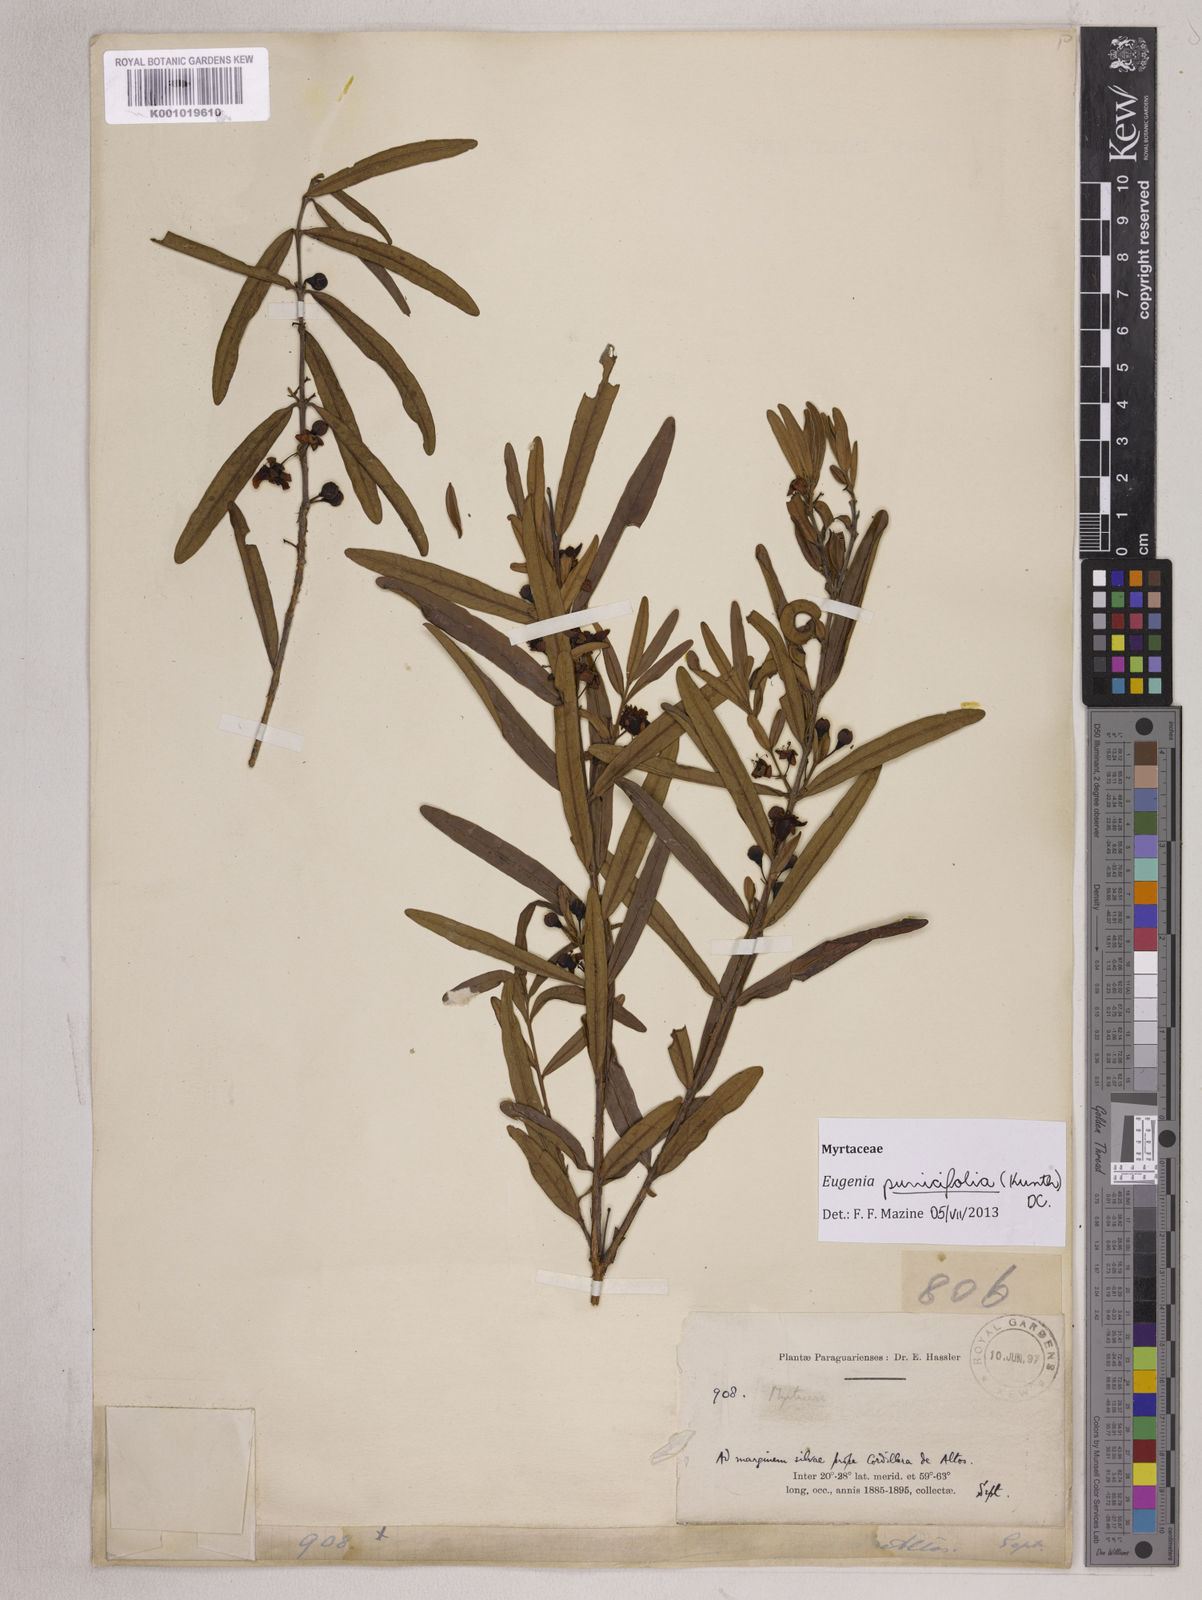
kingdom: Plantae
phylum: Tracheophyta
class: Magnoliopsida
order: Myrtales
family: Myrtaceae
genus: Eugenia
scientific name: Eugenia punicifolia
